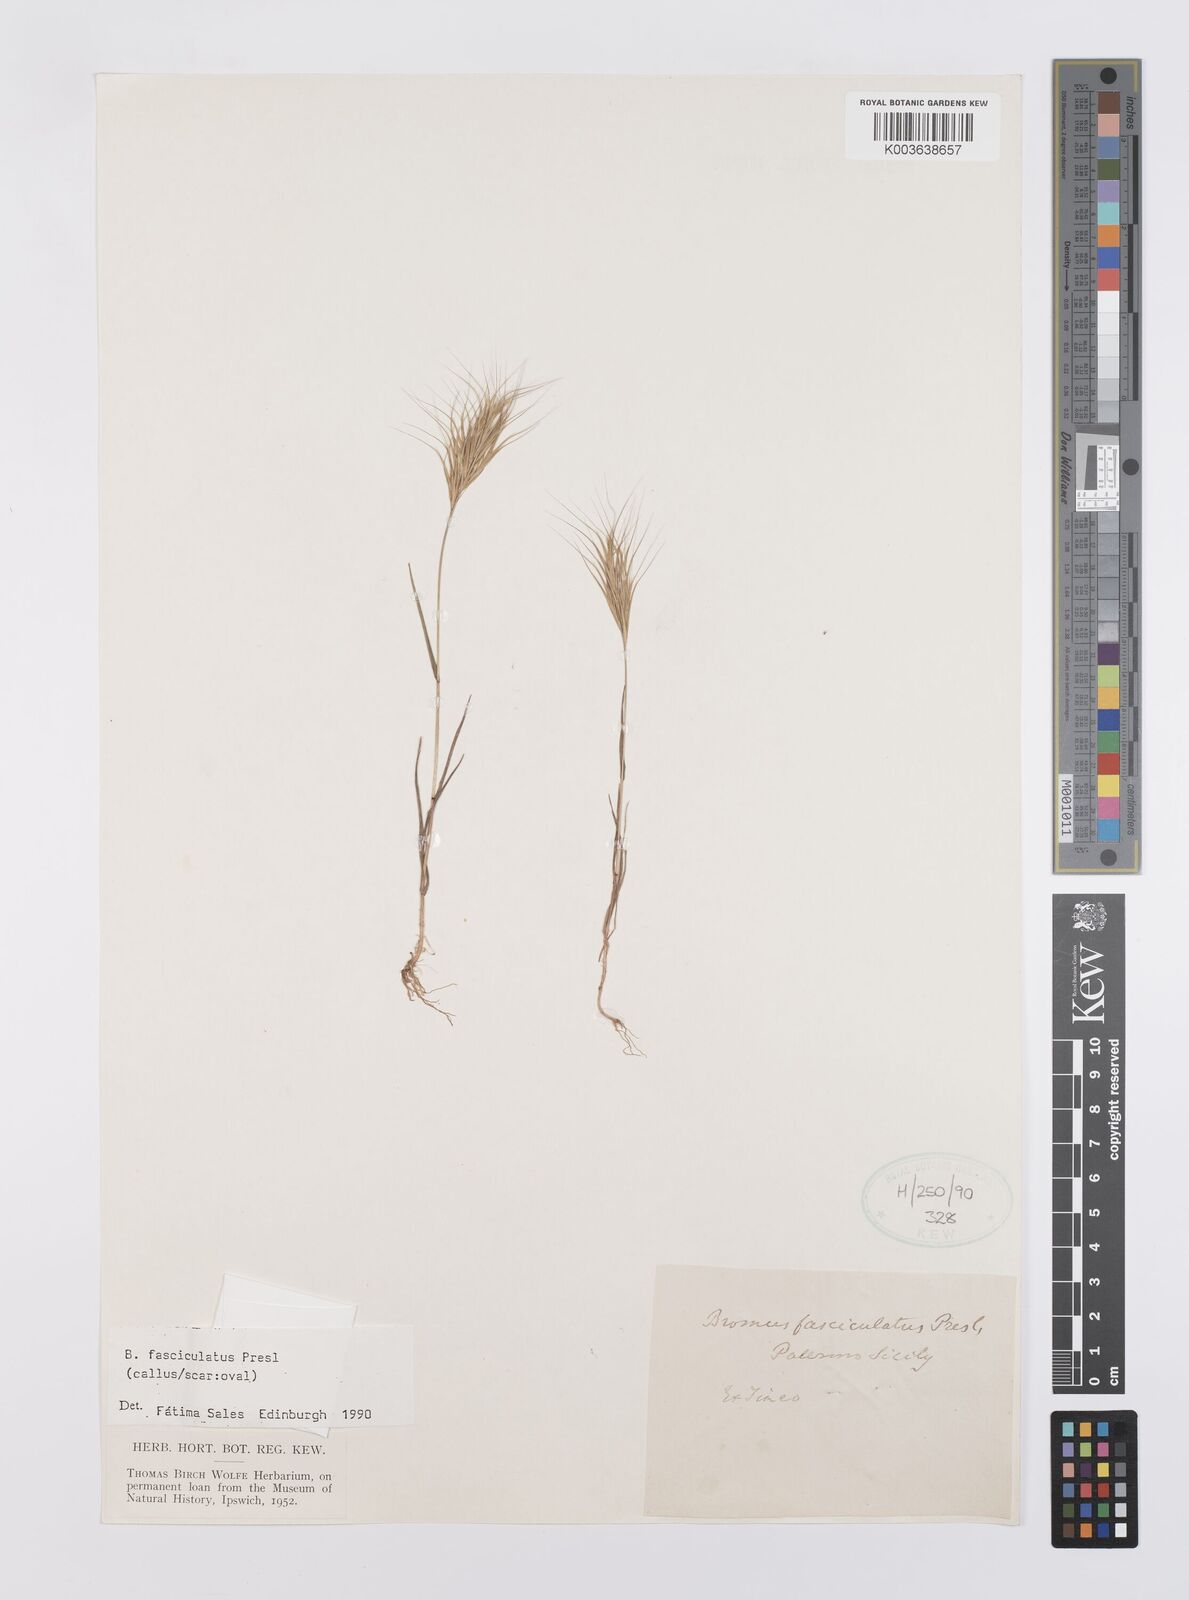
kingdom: Plantae
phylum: Tracheophyta
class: Liliopsida
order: Poales
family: Poaceae
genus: Bromus
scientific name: Bromus fasciculatus
